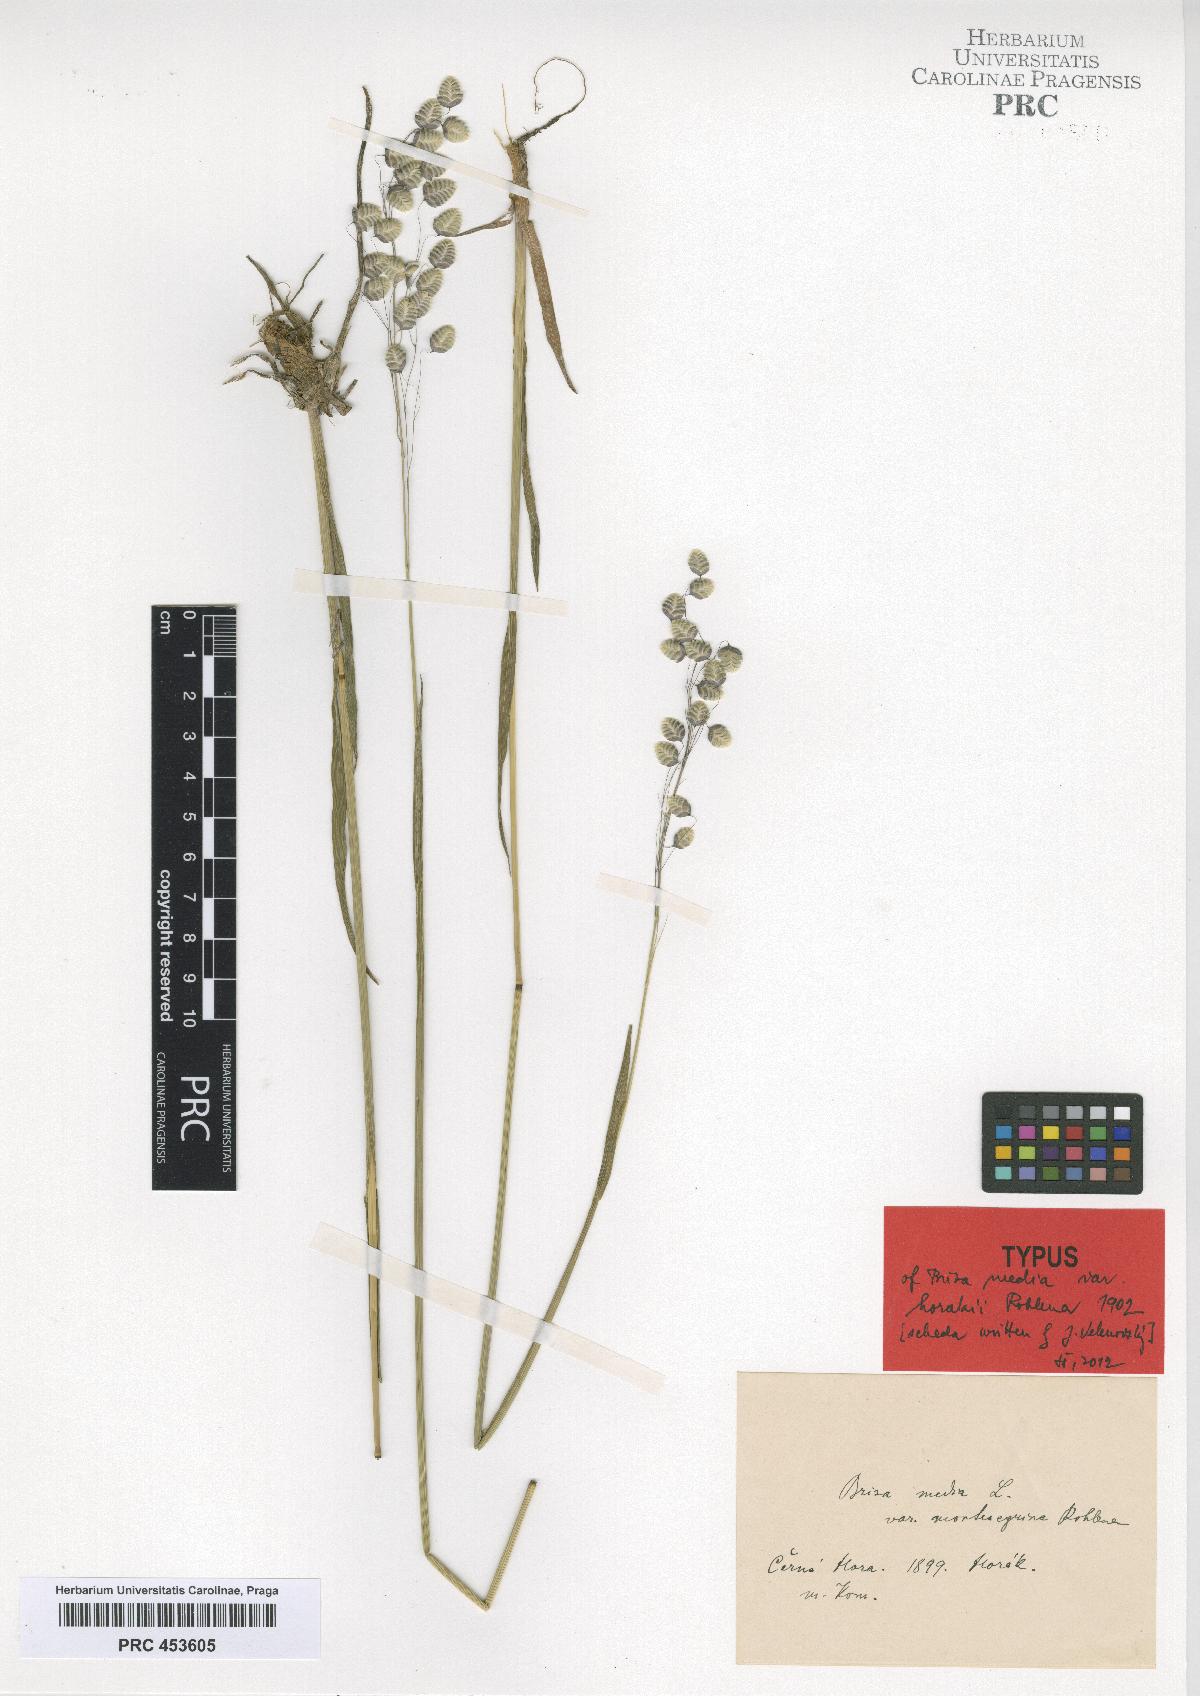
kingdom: Plantae
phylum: Tracheophyta
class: Liliopsida
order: Poales
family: Poaceae
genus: Briza
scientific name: Briza media
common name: Quaking grass
